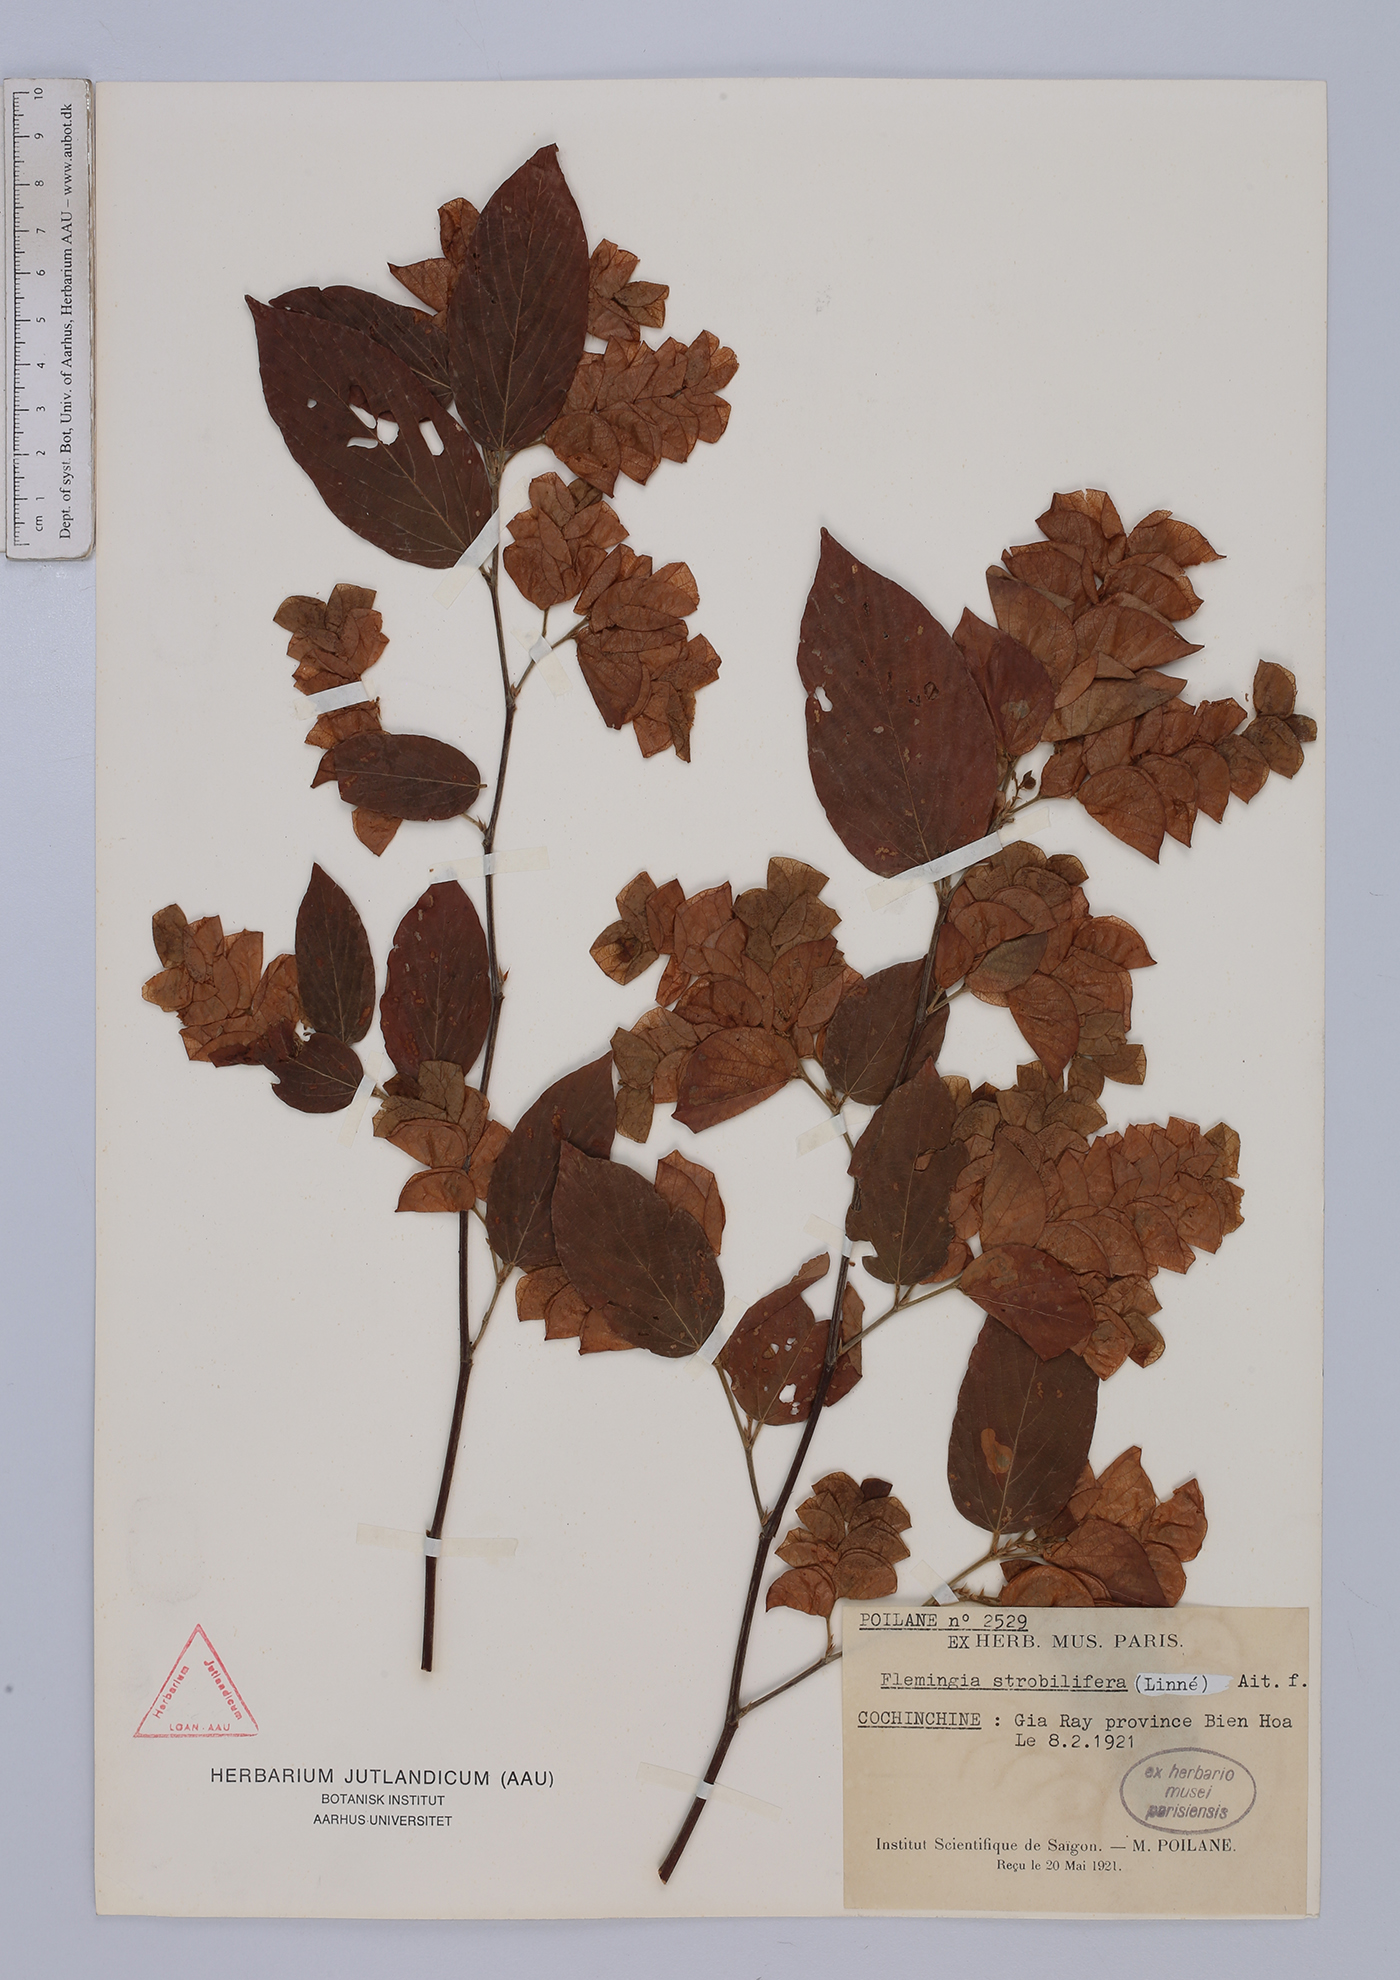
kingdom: Plantae
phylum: Tracheophyta
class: Magnoliopsida
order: Fabales
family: Fabaceae
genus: Flemingia
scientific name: Flemingia strobilifera
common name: Wild hops
